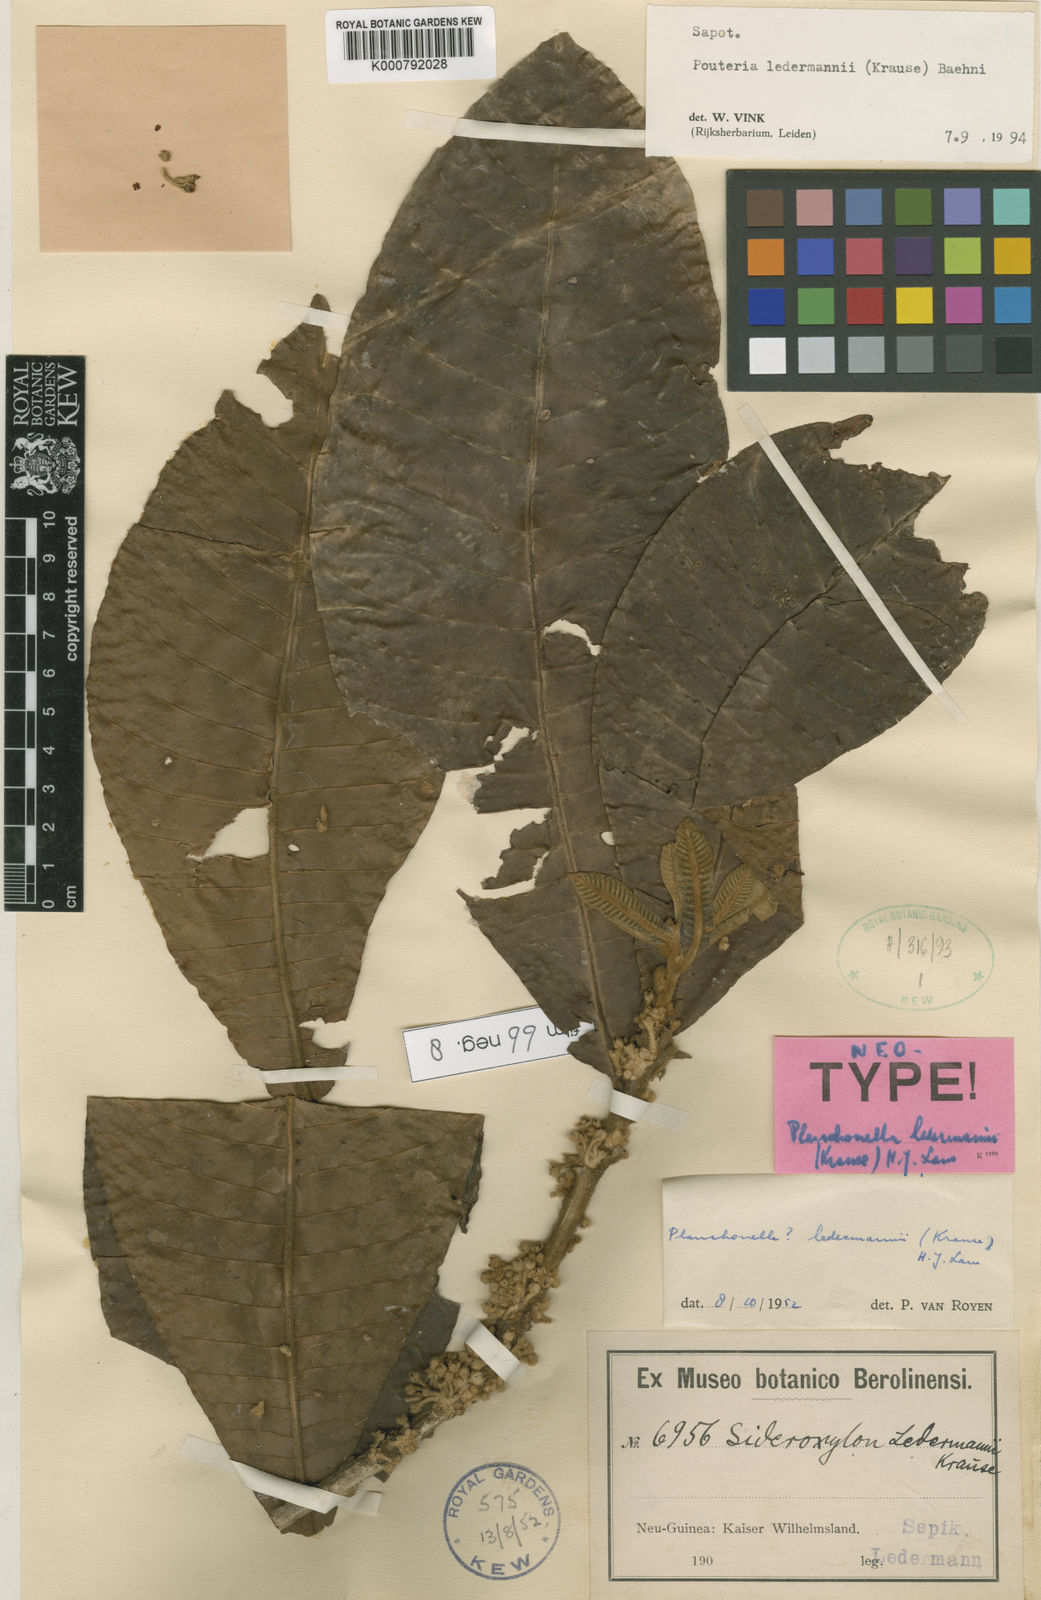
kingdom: Plantae
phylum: Tracheophyta
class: Magnoliopsida
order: Ericales
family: Sapotaceae
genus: Pleioluma
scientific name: Pleioluma ledermannii
